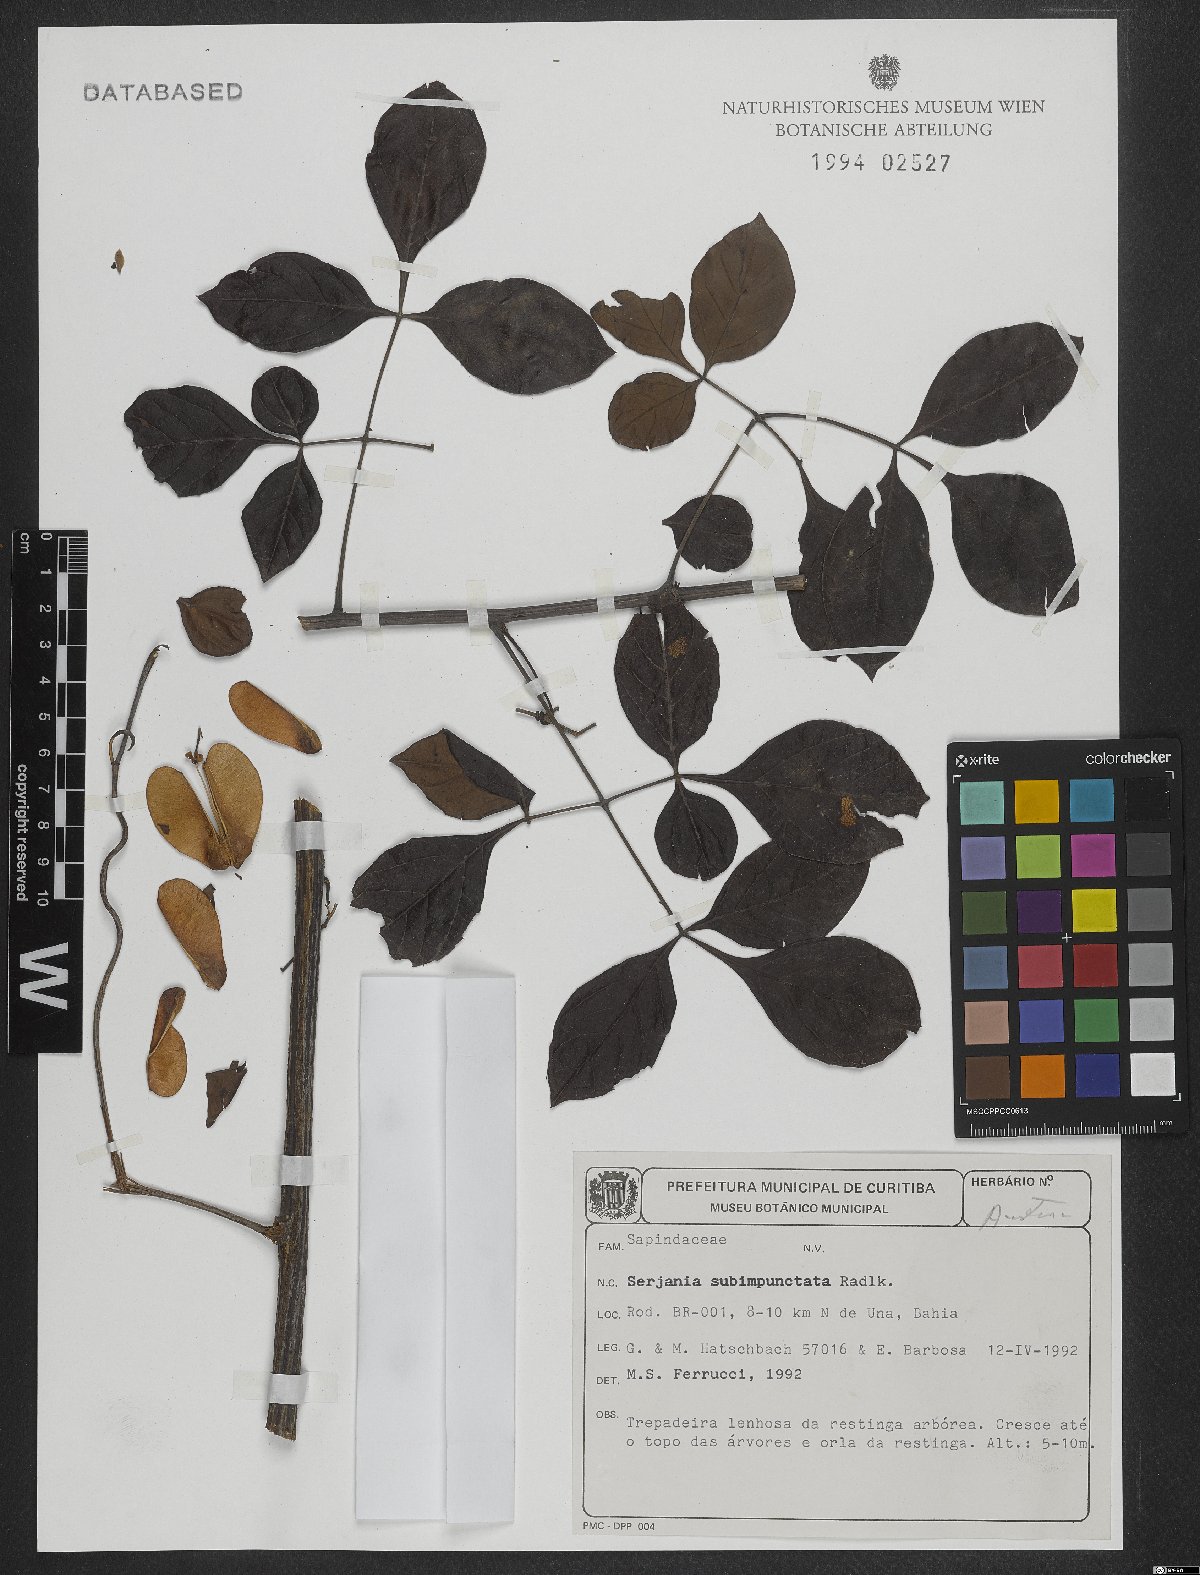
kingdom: Plantae
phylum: Tracheophyta
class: Magnoliopsida
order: Sapindales
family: Sapindaceae
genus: Serjania
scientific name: Serjania subimpunctata
